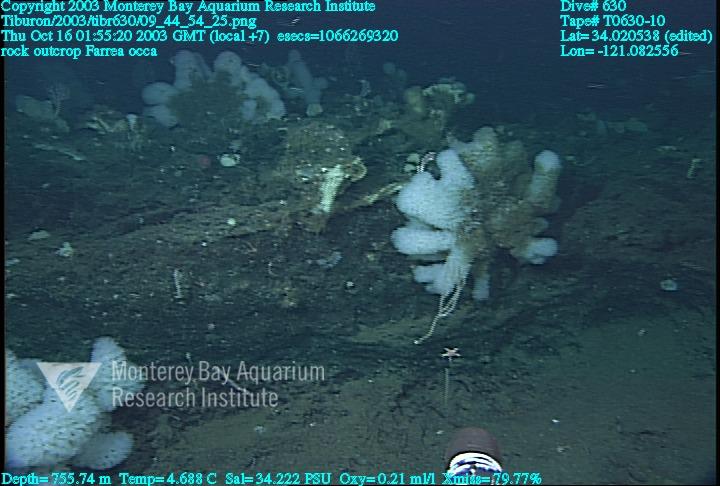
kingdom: Animalia
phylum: Porifera
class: Hexactinellida
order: Sceptrulophora
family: Farreidae
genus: Farrea
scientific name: Farrea occa
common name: Reversed glass sponge
